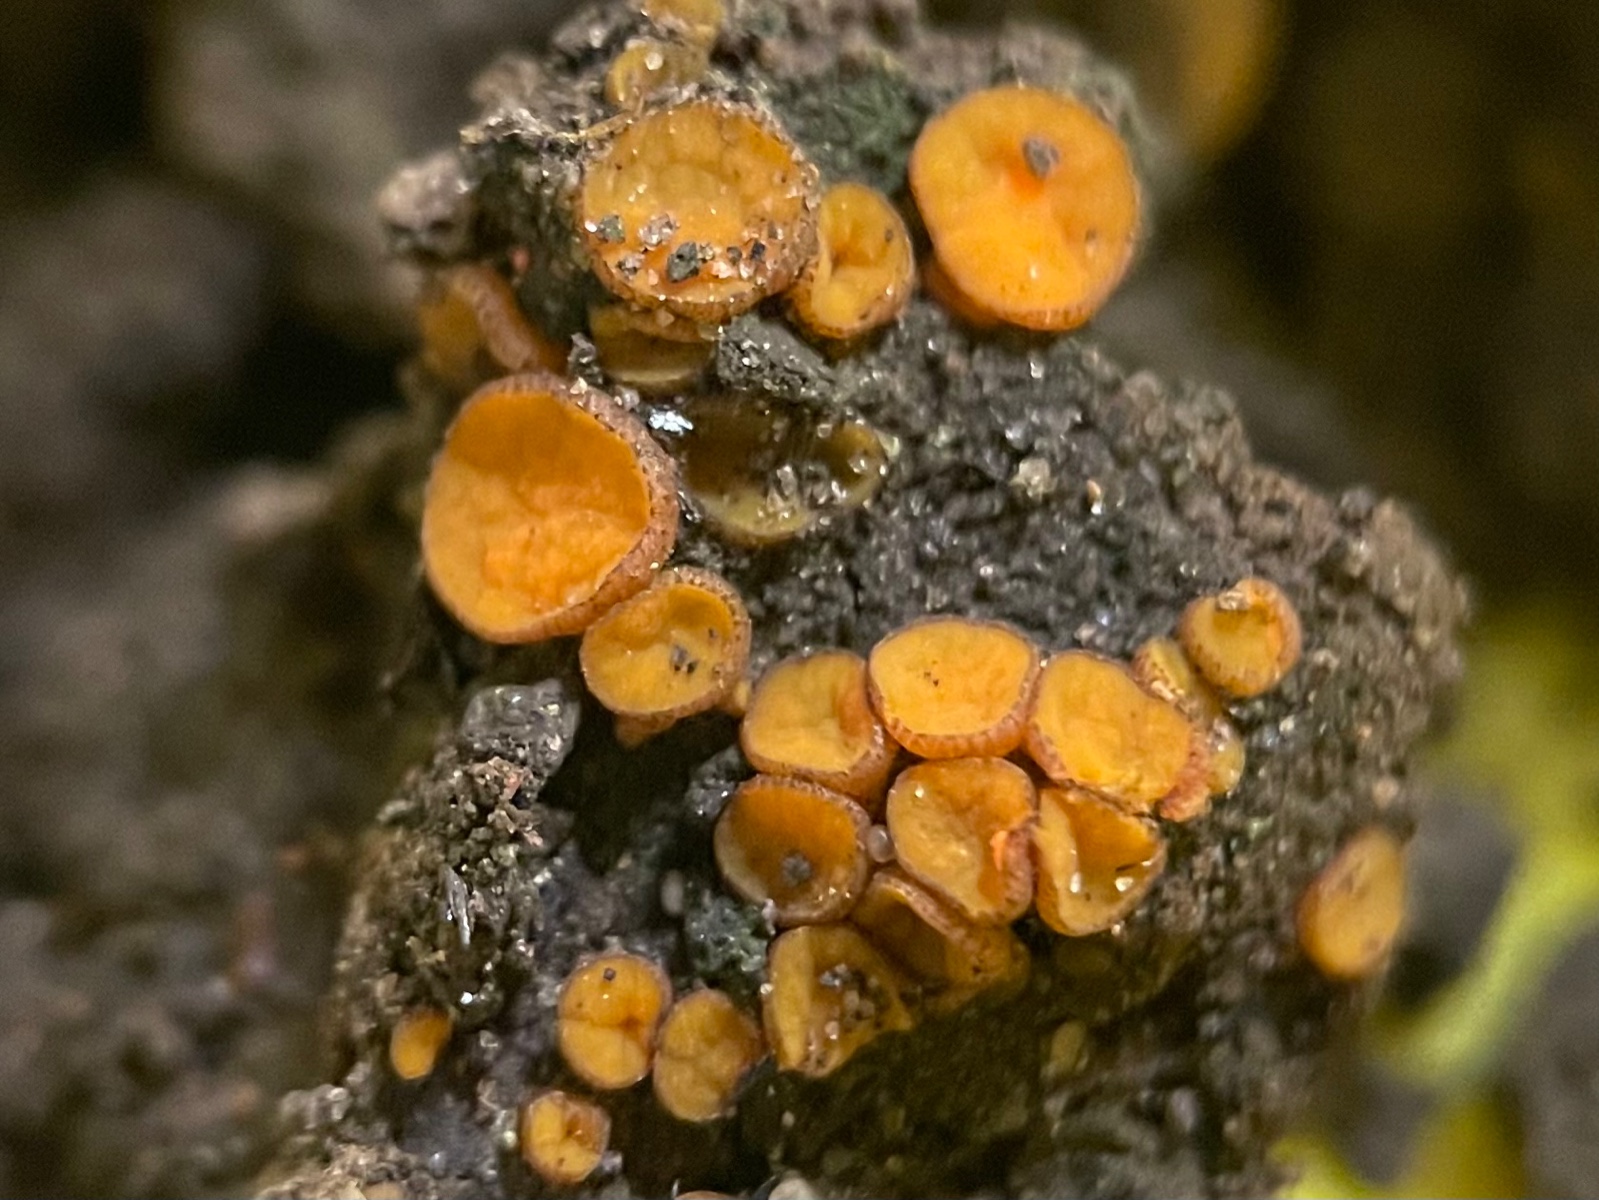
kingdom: Fungi
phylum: Ascomycota
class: Pezizomycetes
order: Pezizales
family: Pyronemataceae
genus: Anthracobia
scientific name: Anthracobia
